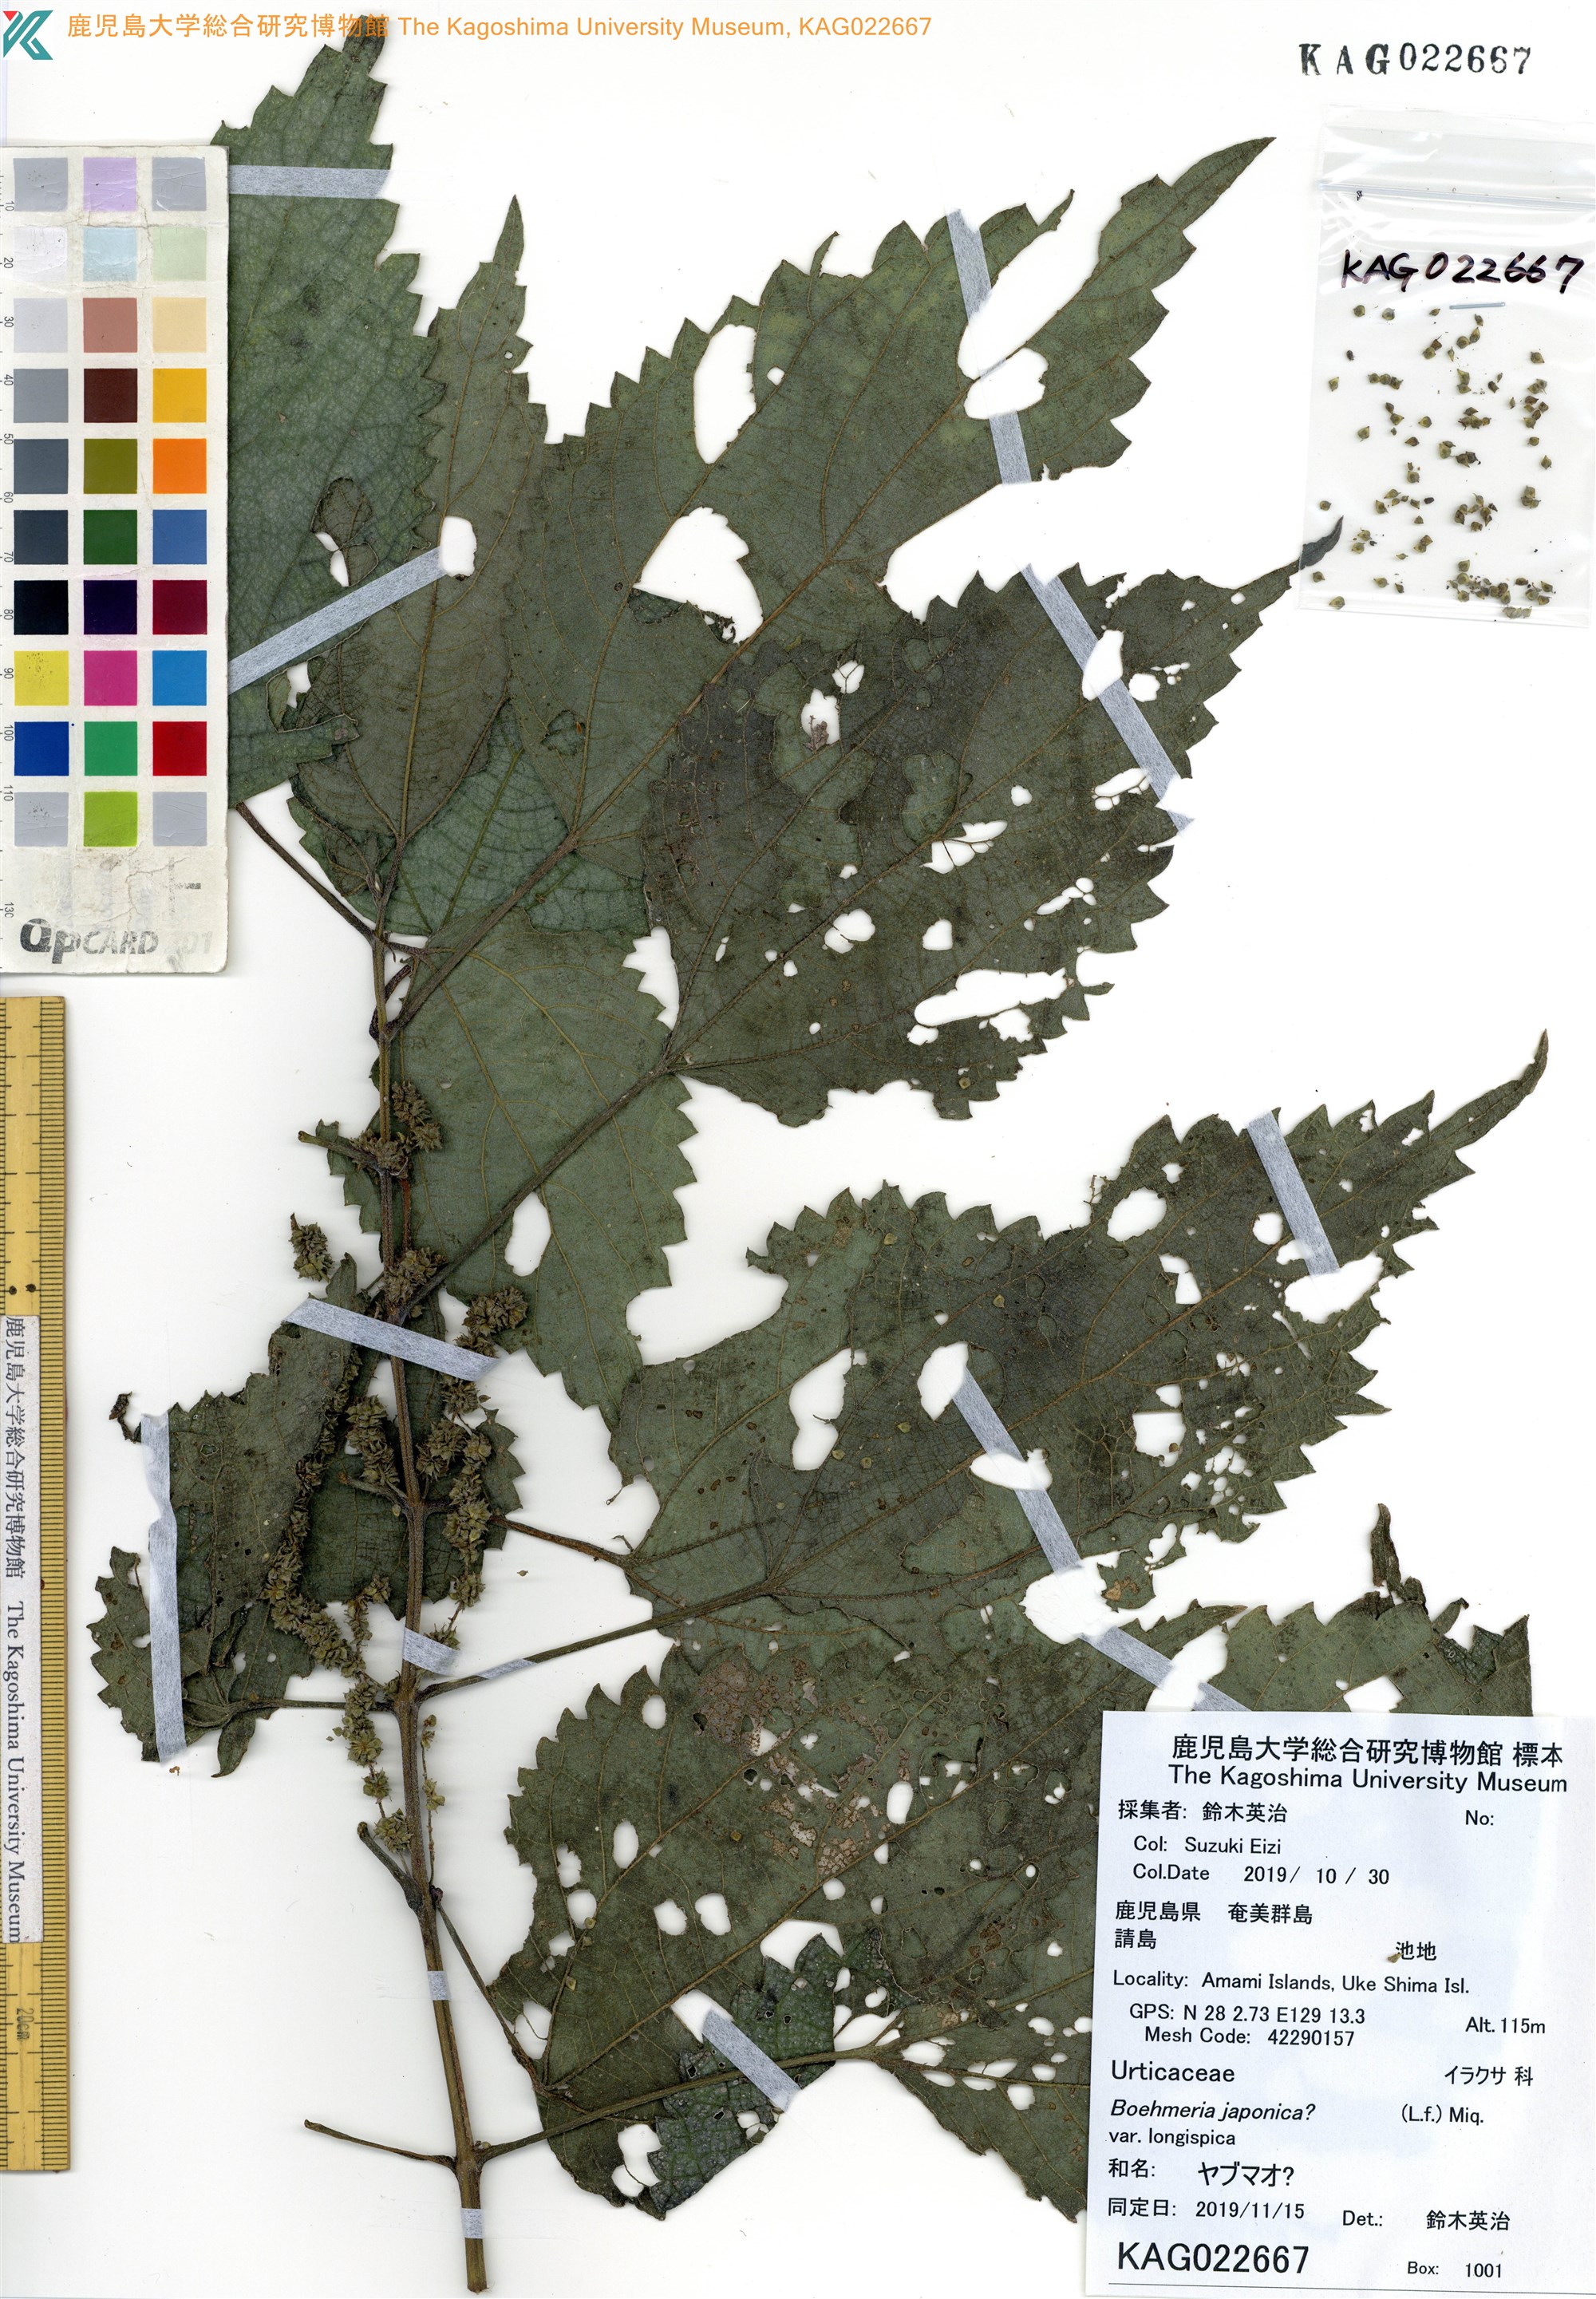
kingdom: Plantae
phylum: Tracheophyta
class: Magnoliopsida
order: Rosales
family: Urticaceae
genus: Boehmeria
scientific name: Boehmeria japonica
